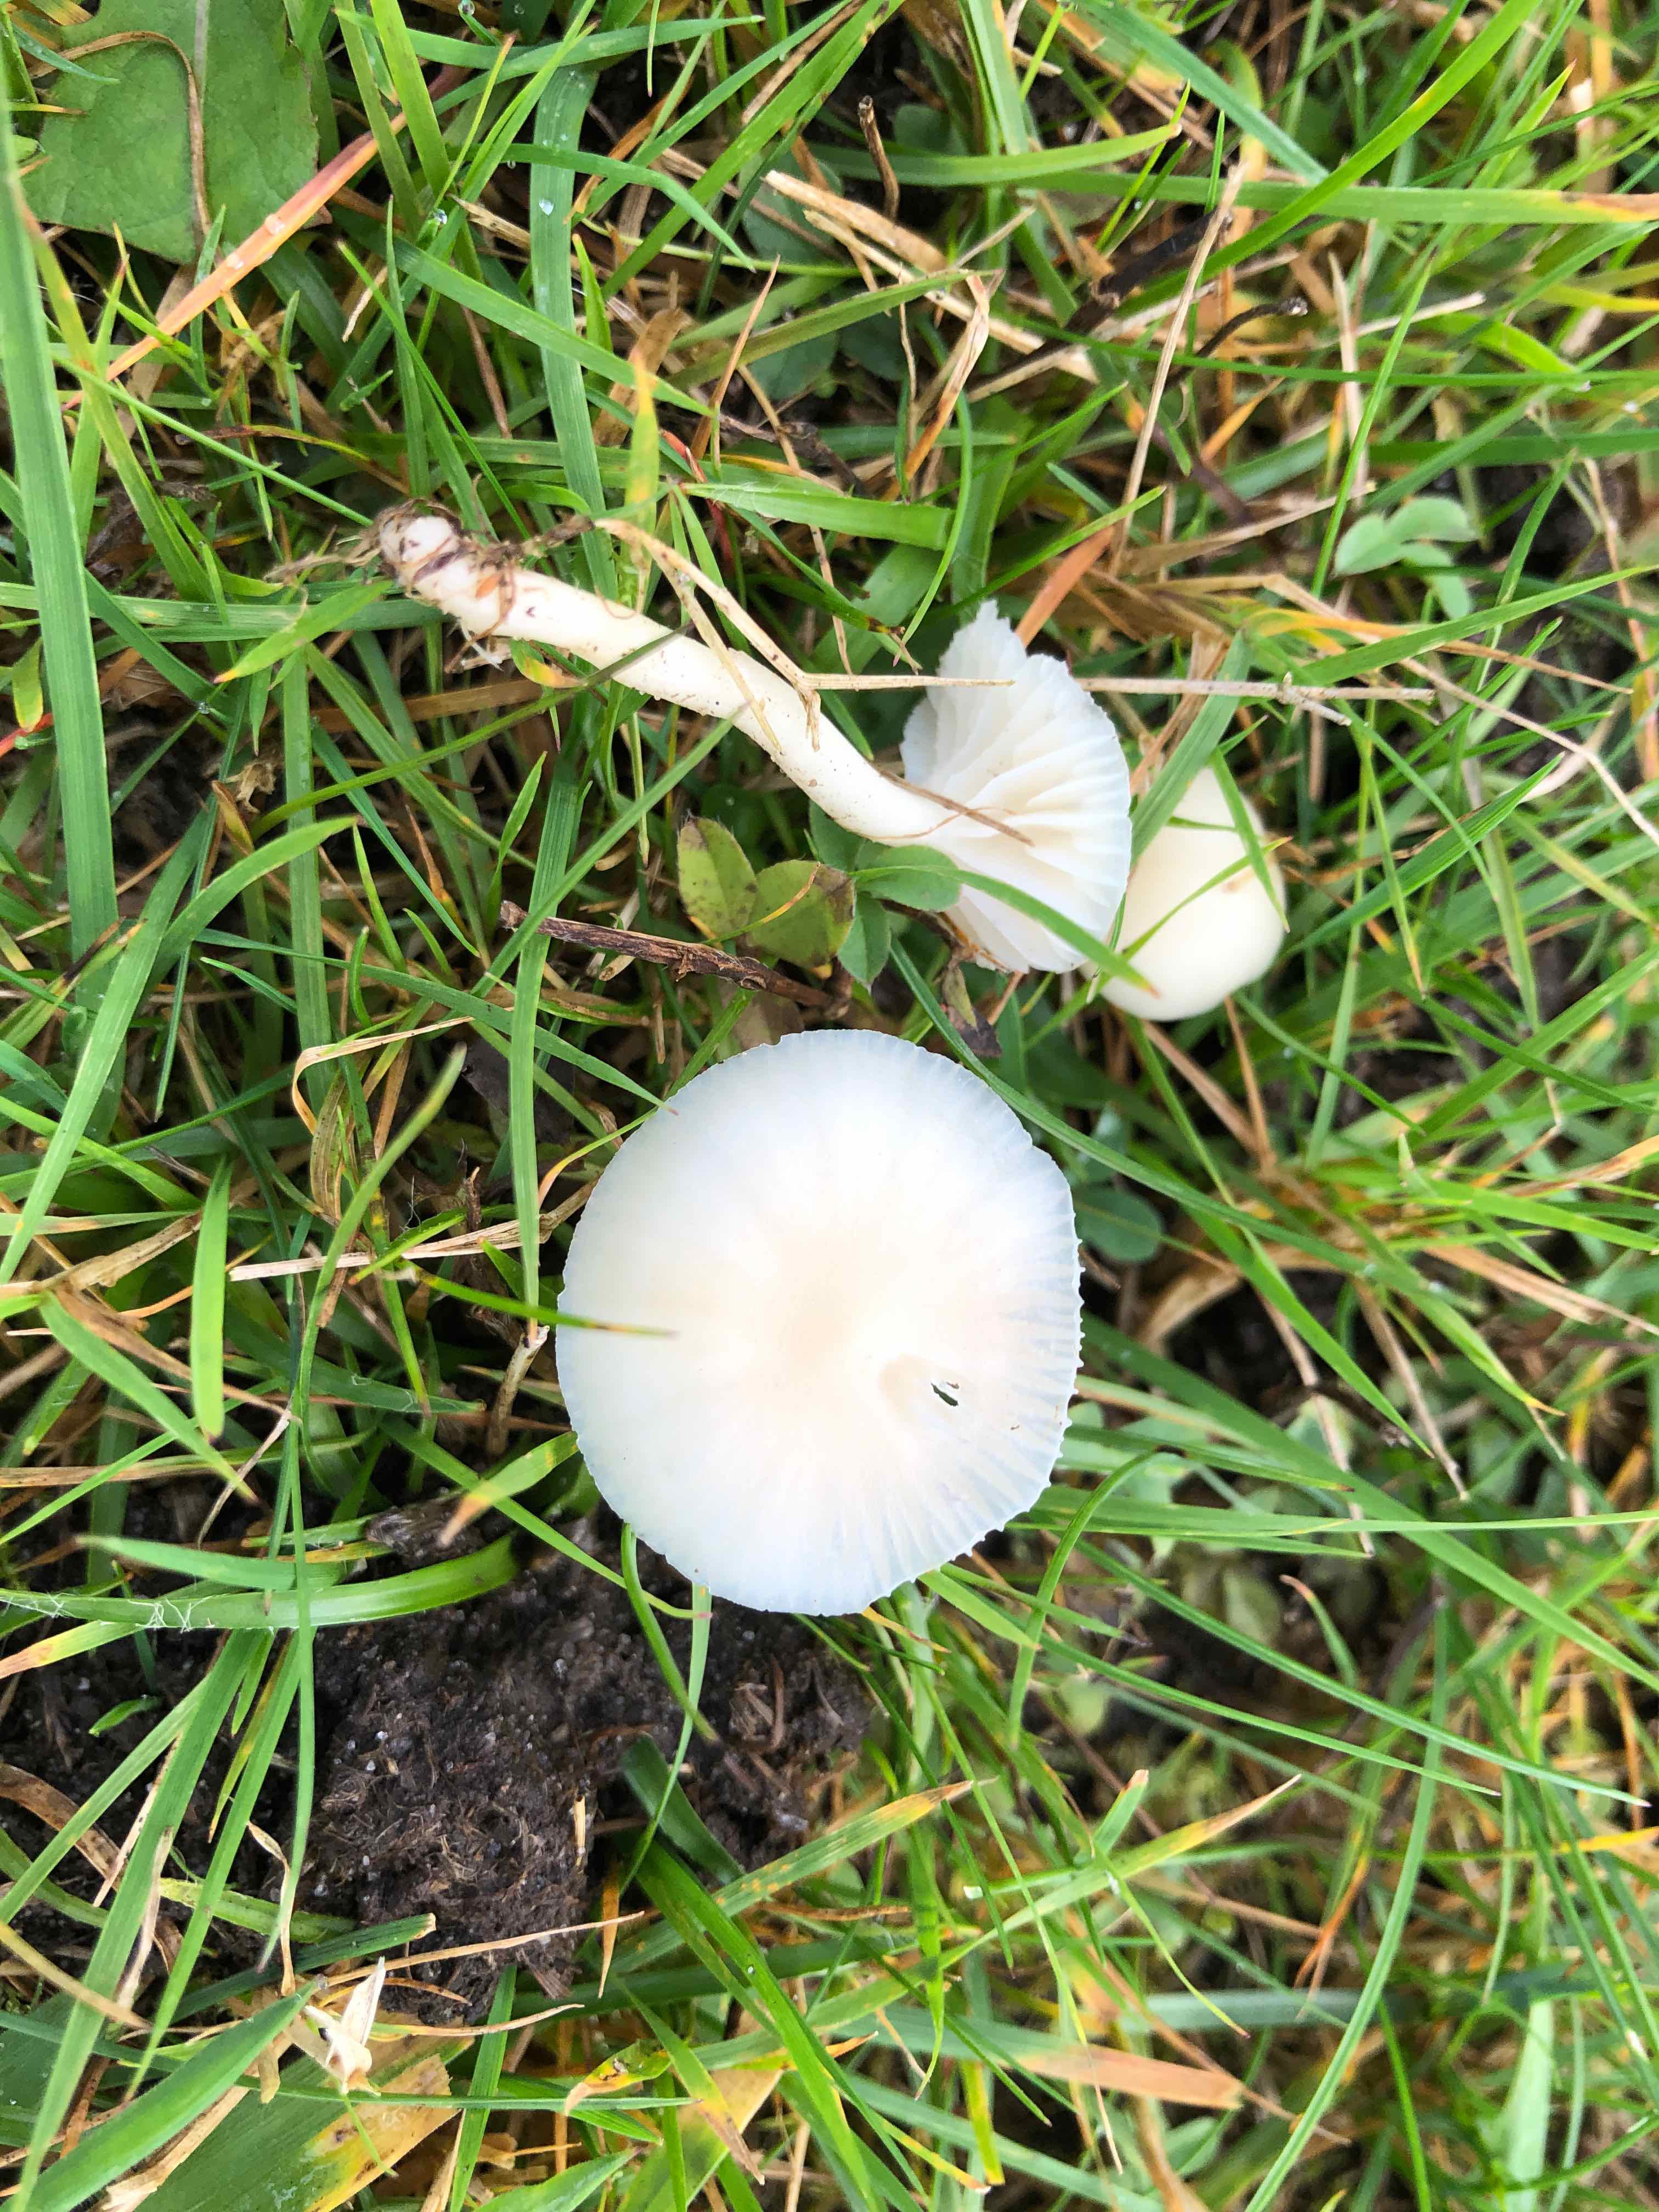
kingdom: Fungi
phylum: Basidiomycota
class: Agaricomycetes
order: Agaricales
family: Hygrophoraceae
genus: Cuphophyllus
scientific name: Cuphophyllus virgineus
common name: snehvid vokshat
